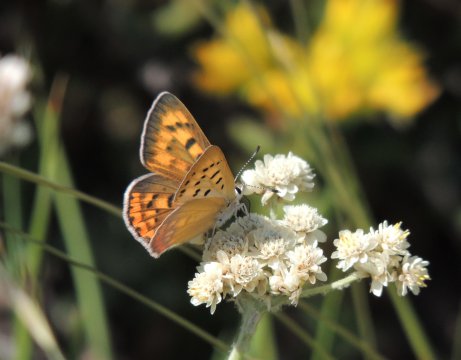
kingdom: Animalia
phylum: Arthropoda
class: Insecta
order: Lepidoptera
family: Lycaenidae
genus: Lycaena
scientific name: Lycaena nivalis
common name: Lilac-bordered Copper
